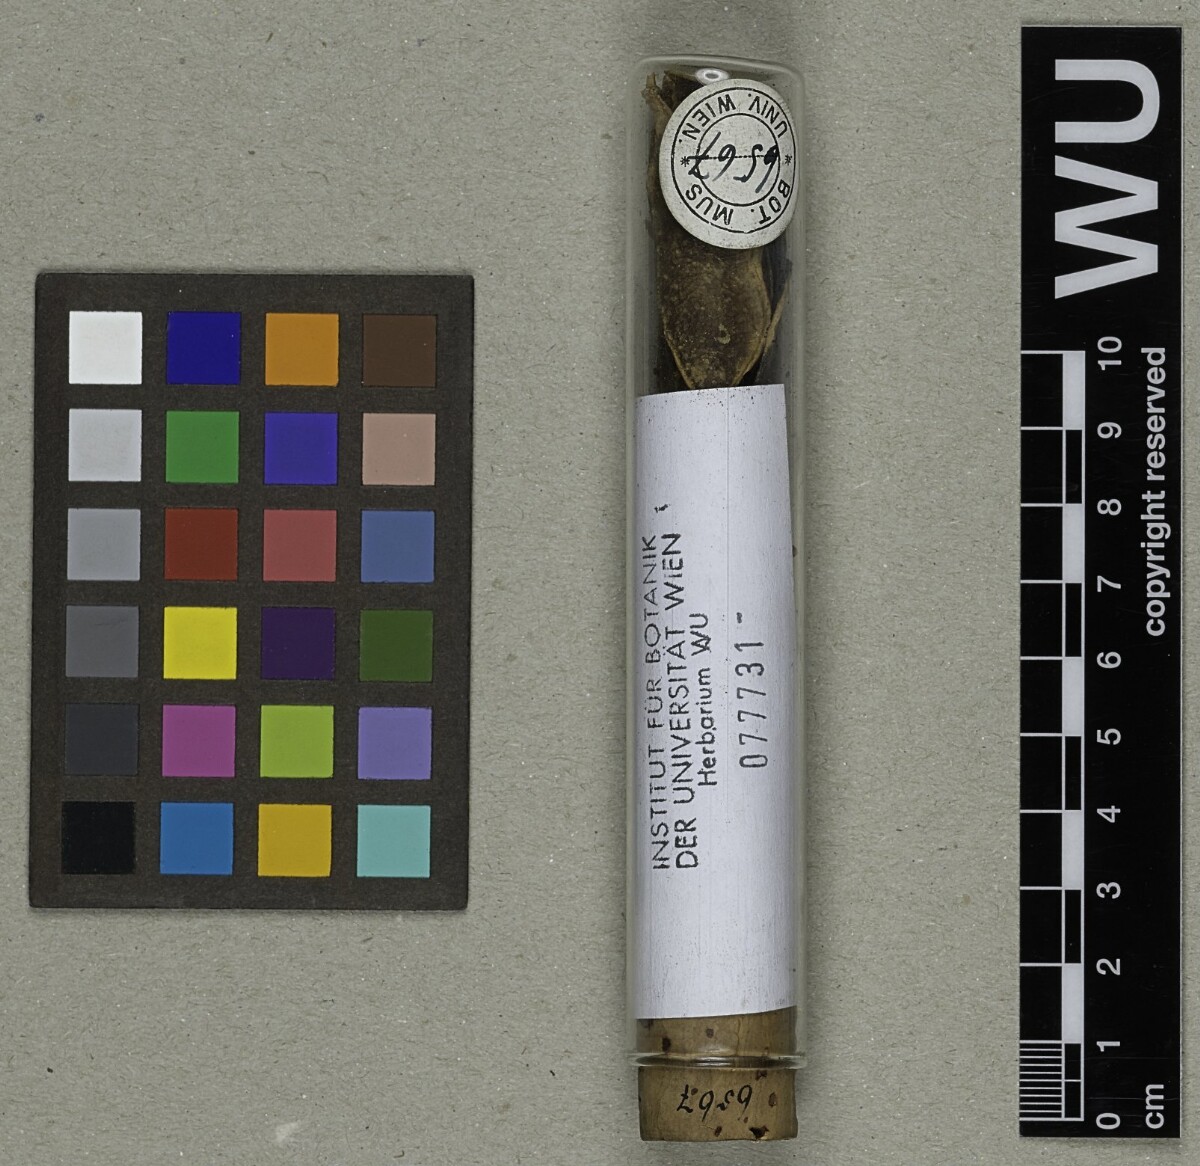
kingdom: Plantae
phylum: Tracheophyta
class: Magnoliopsida
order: Fabales
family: Fabaceae
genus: Streblorrhiza
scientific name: Streblorrhiza speciosa
